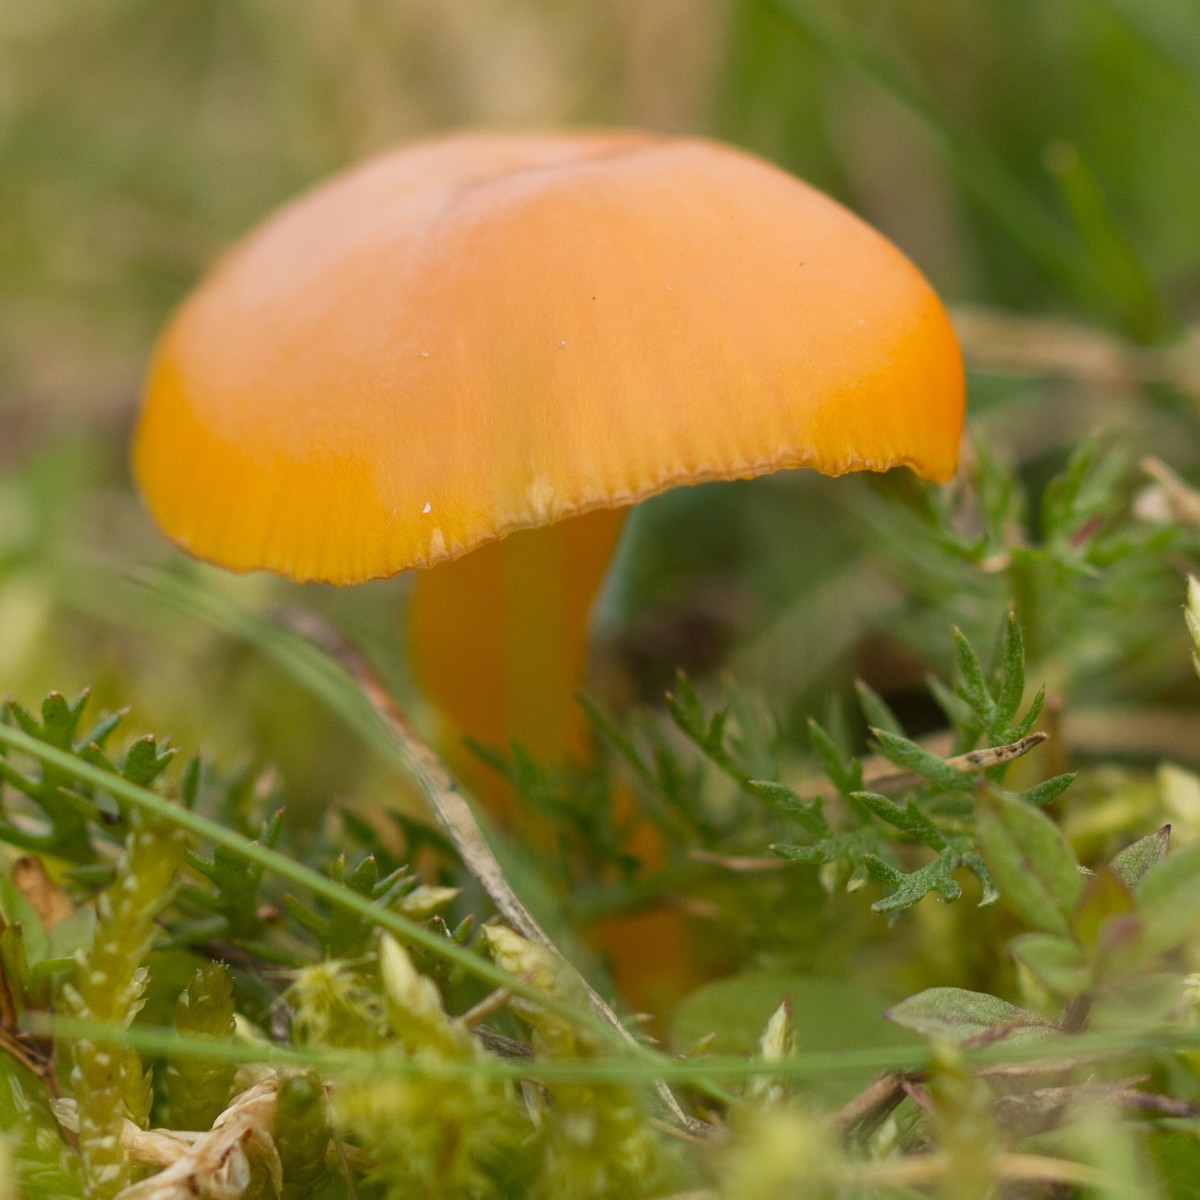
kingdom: Fungi
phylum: Basidiomycota
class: Agaricomycetes
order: Agaricales
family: Hygrophoraceae
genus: Hygrocybe
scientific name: Hygrocybe chlorophana
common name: gul vokshat
